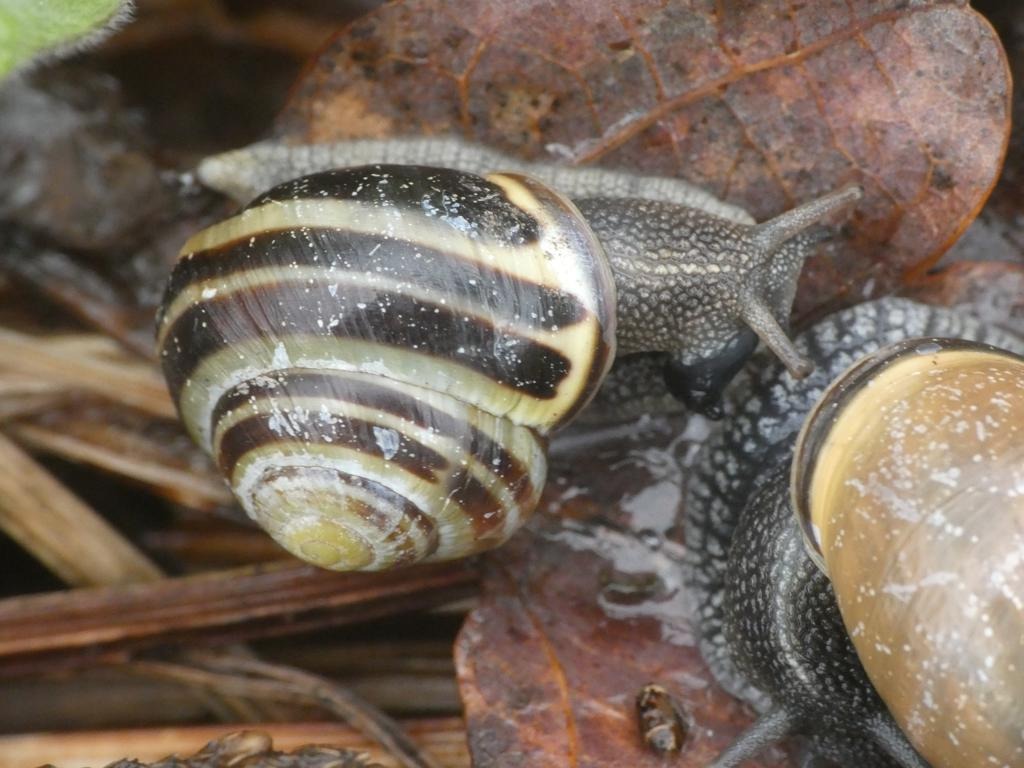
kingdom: Animalia
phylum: Mollusca
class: Gastropoda
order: Stylommatophora
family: Helicidae
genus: Cepaea
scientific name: Cepaea nemoralis
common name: Lundsnegl
